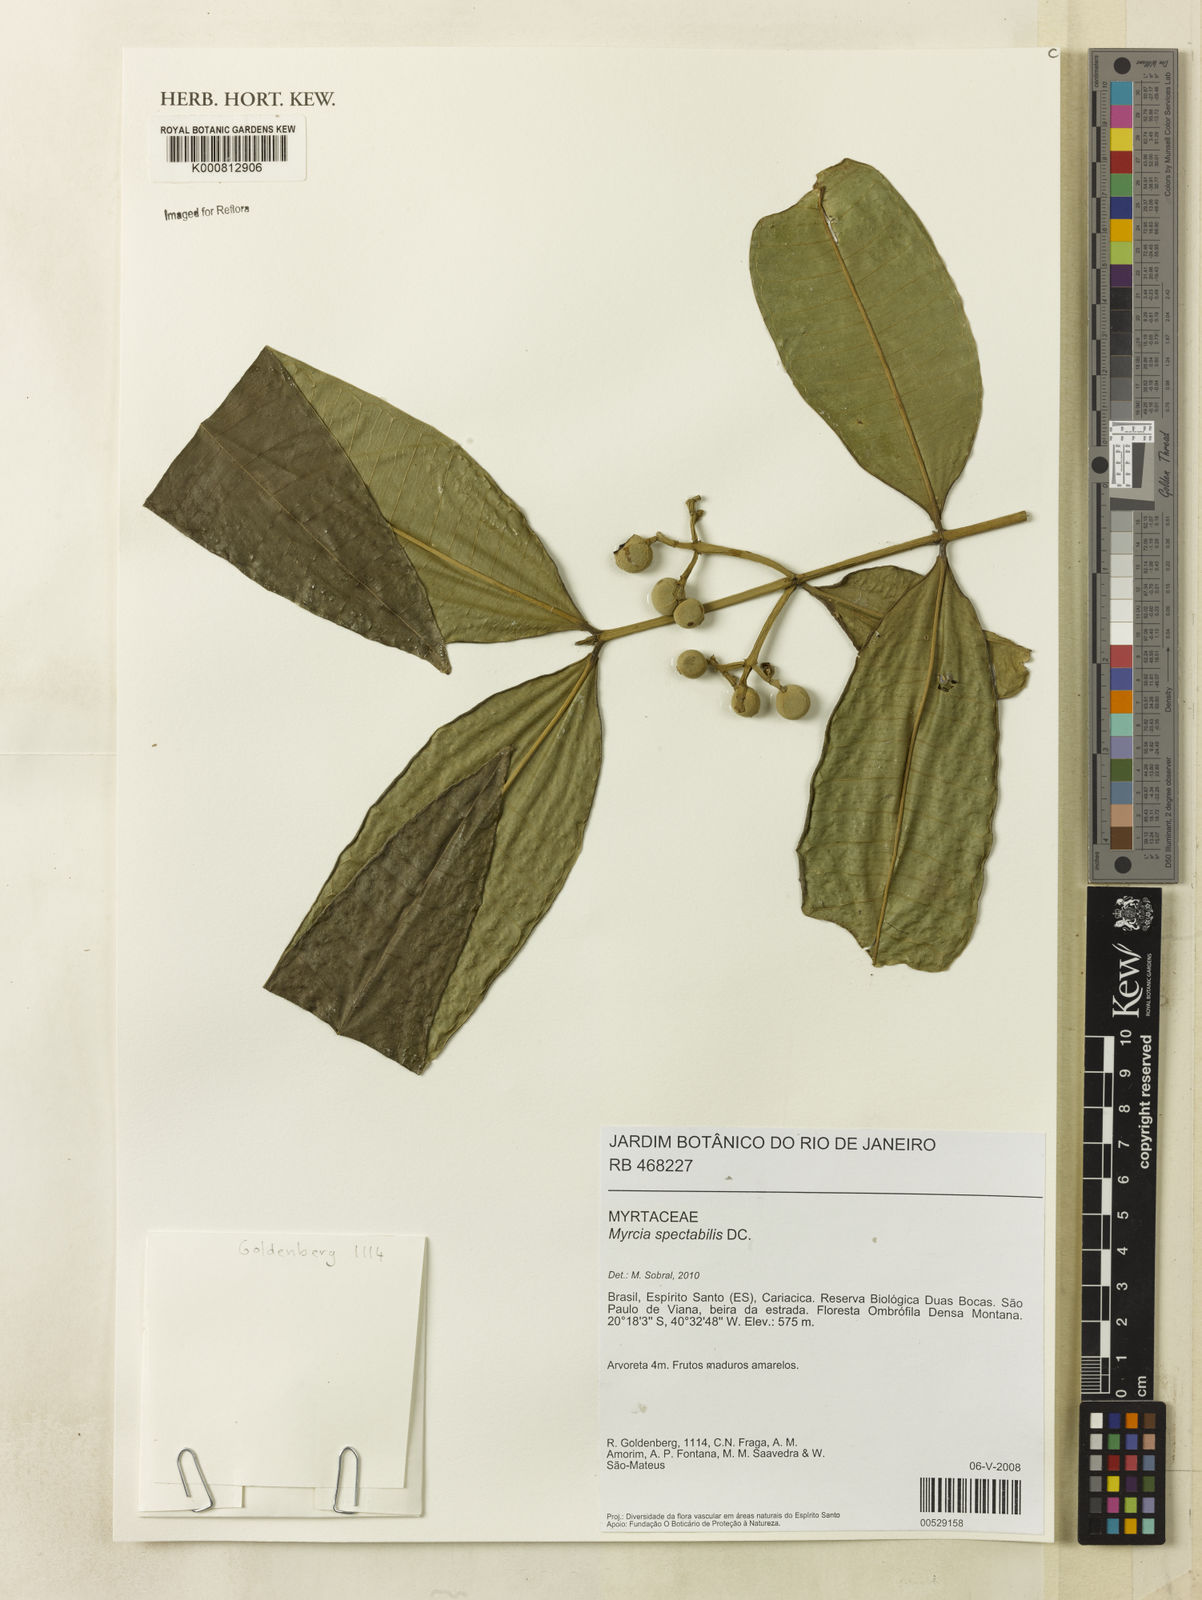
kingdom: Plantae
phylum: Tracheophyta
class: Magnoliopsida
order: Myrtales
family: Myrtaceae
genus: Myrcia
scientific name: Myrcia spectabilis
